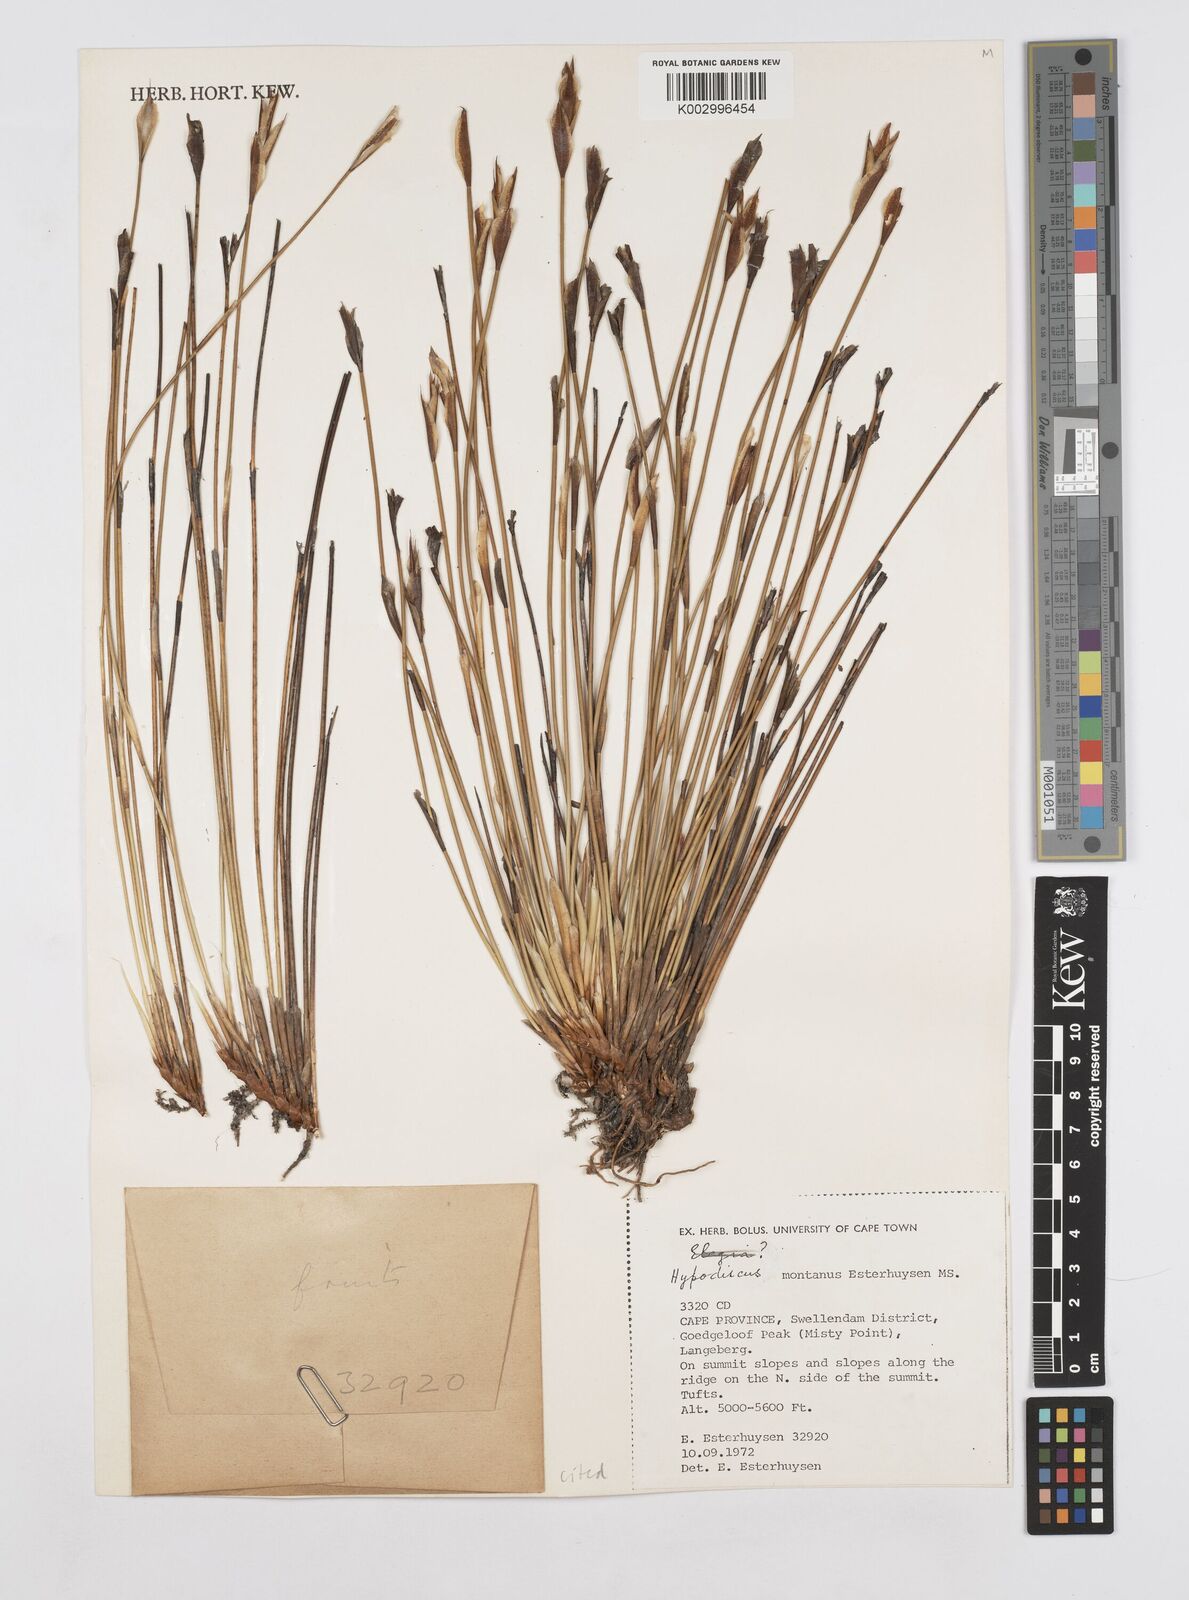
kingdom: Plantae
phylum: Tracheophyta
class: Liliopsida
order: Poales
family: Restionaceae
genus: Hypodiscus
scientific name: Hypodiscus montanus
